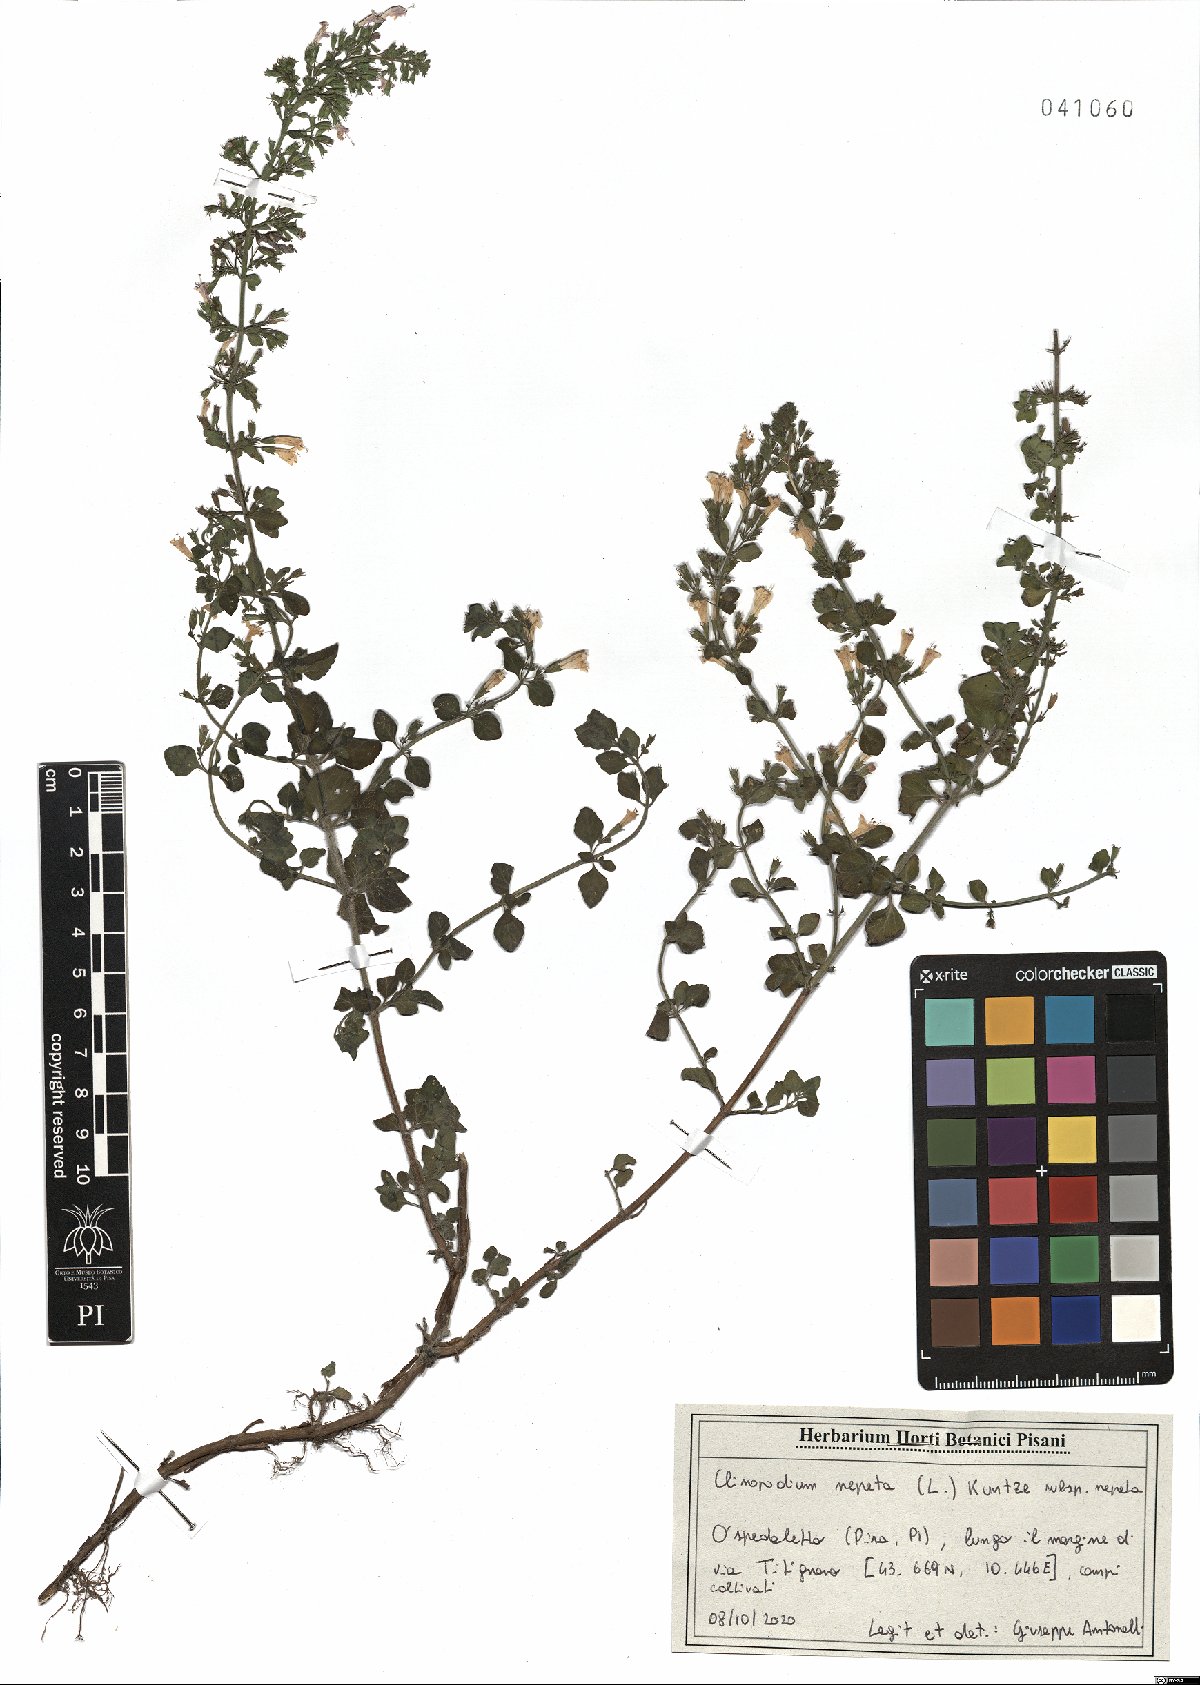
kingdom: Plantae
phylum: Tracheophyta
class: Magnoliopsida
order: Lamiales
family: Lamiaceae
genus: Clinopodium
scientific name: Clinopodium nepeta
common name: Lesser calamint
